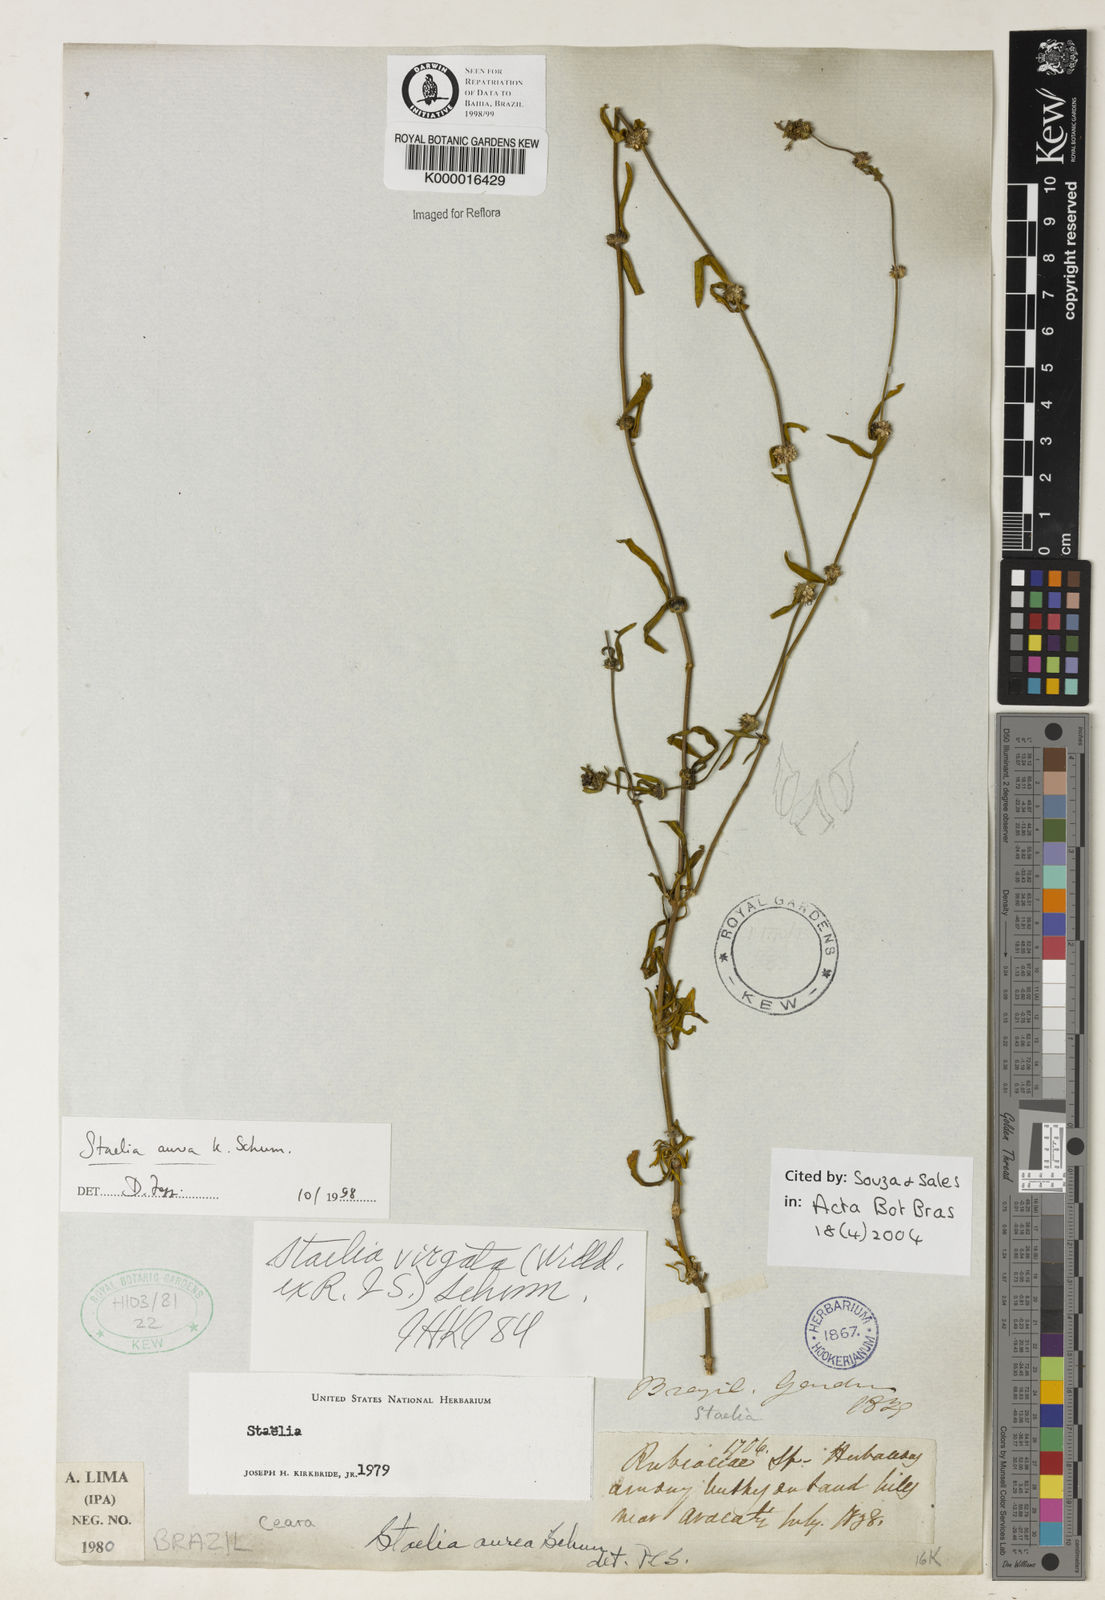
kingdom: Plantae
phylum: Tracheophyta
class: Magnoliopsida
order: Gentianales
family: Rubiaceae
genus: Staelia
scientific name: Staelia aurea
